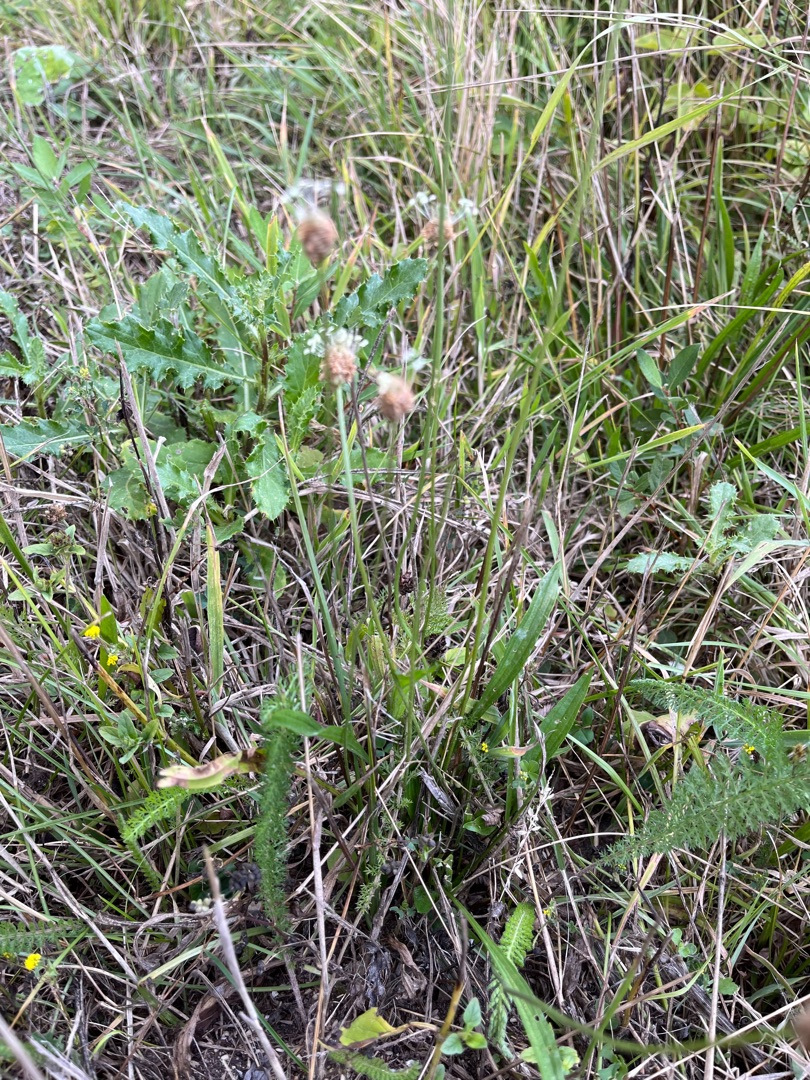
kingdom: Plantae
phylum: Tracheophyta
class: Magnoliopsida
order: Lamiales
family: Plantaginaceae
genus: Plantago
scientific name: Plantago lanceolata
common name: Lancet-vejbred
